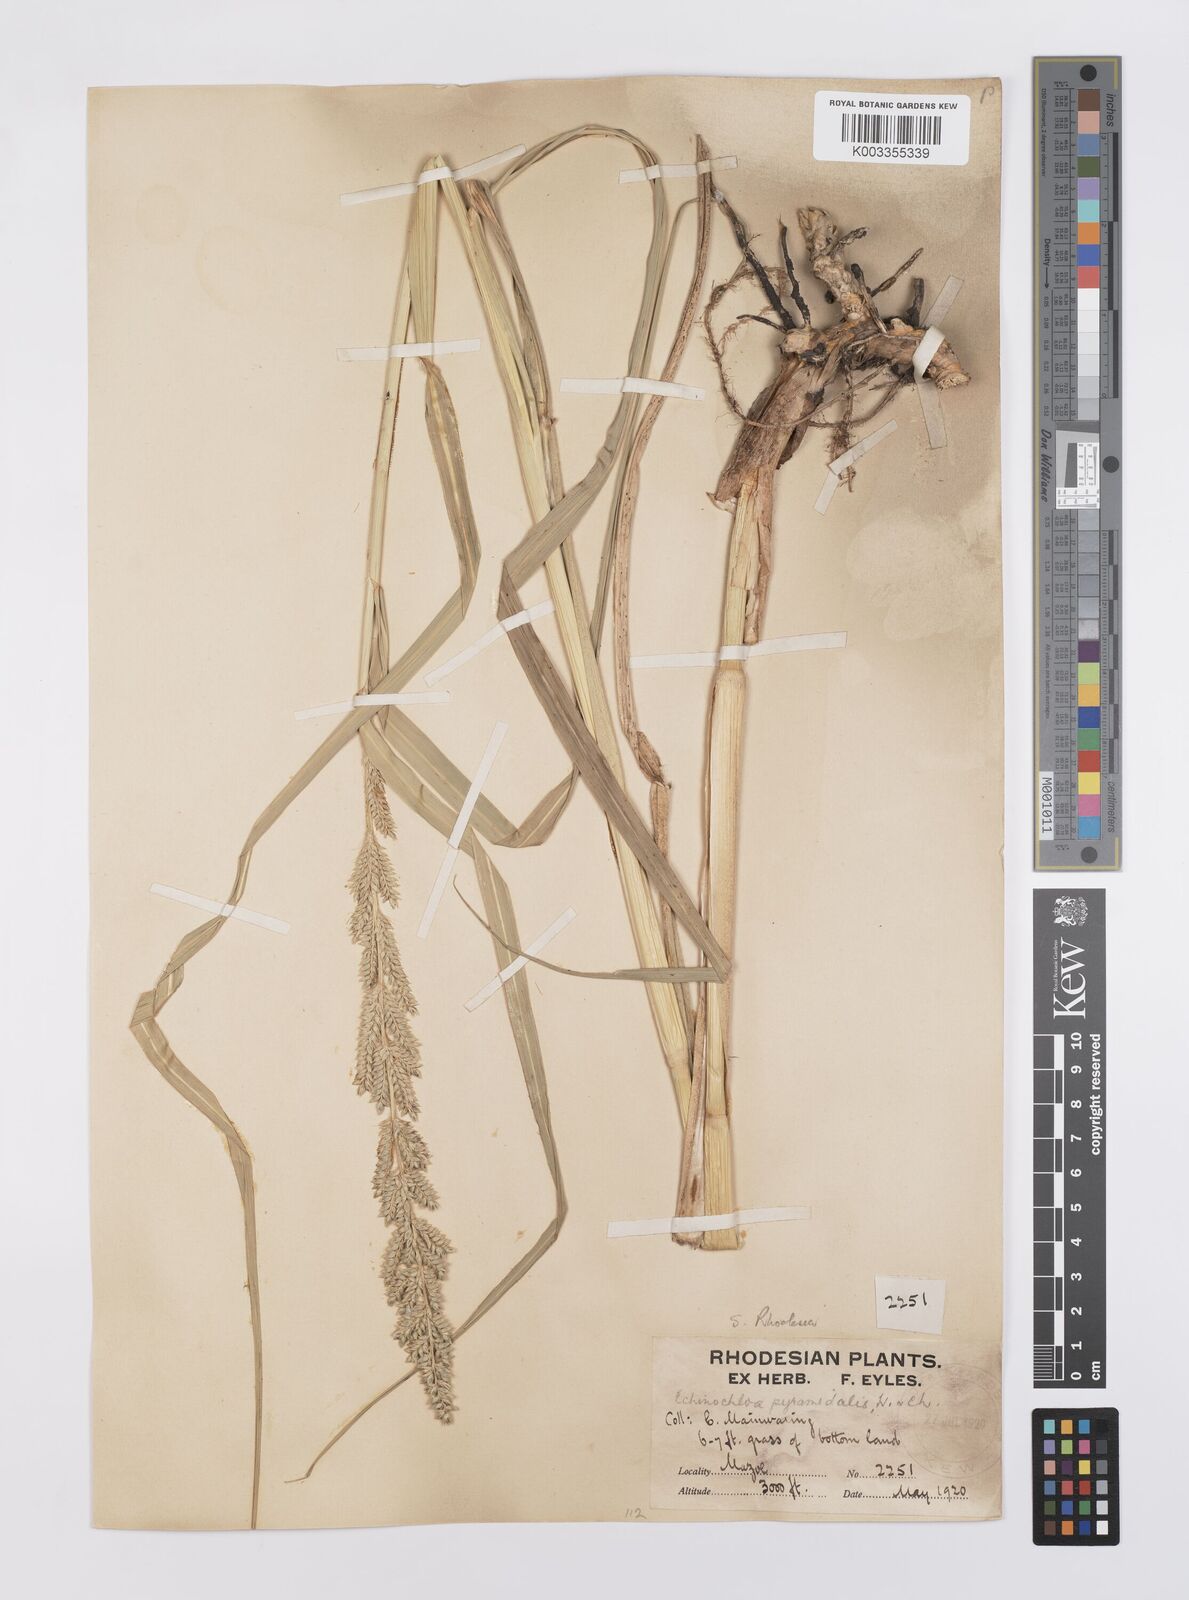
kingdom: Plantae
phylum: Tracheophyta
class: Liliopsida
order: Poales
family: Poaceae
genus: Echinochloa
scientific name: Echinochloa pyramidalis
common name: Antelope grass
